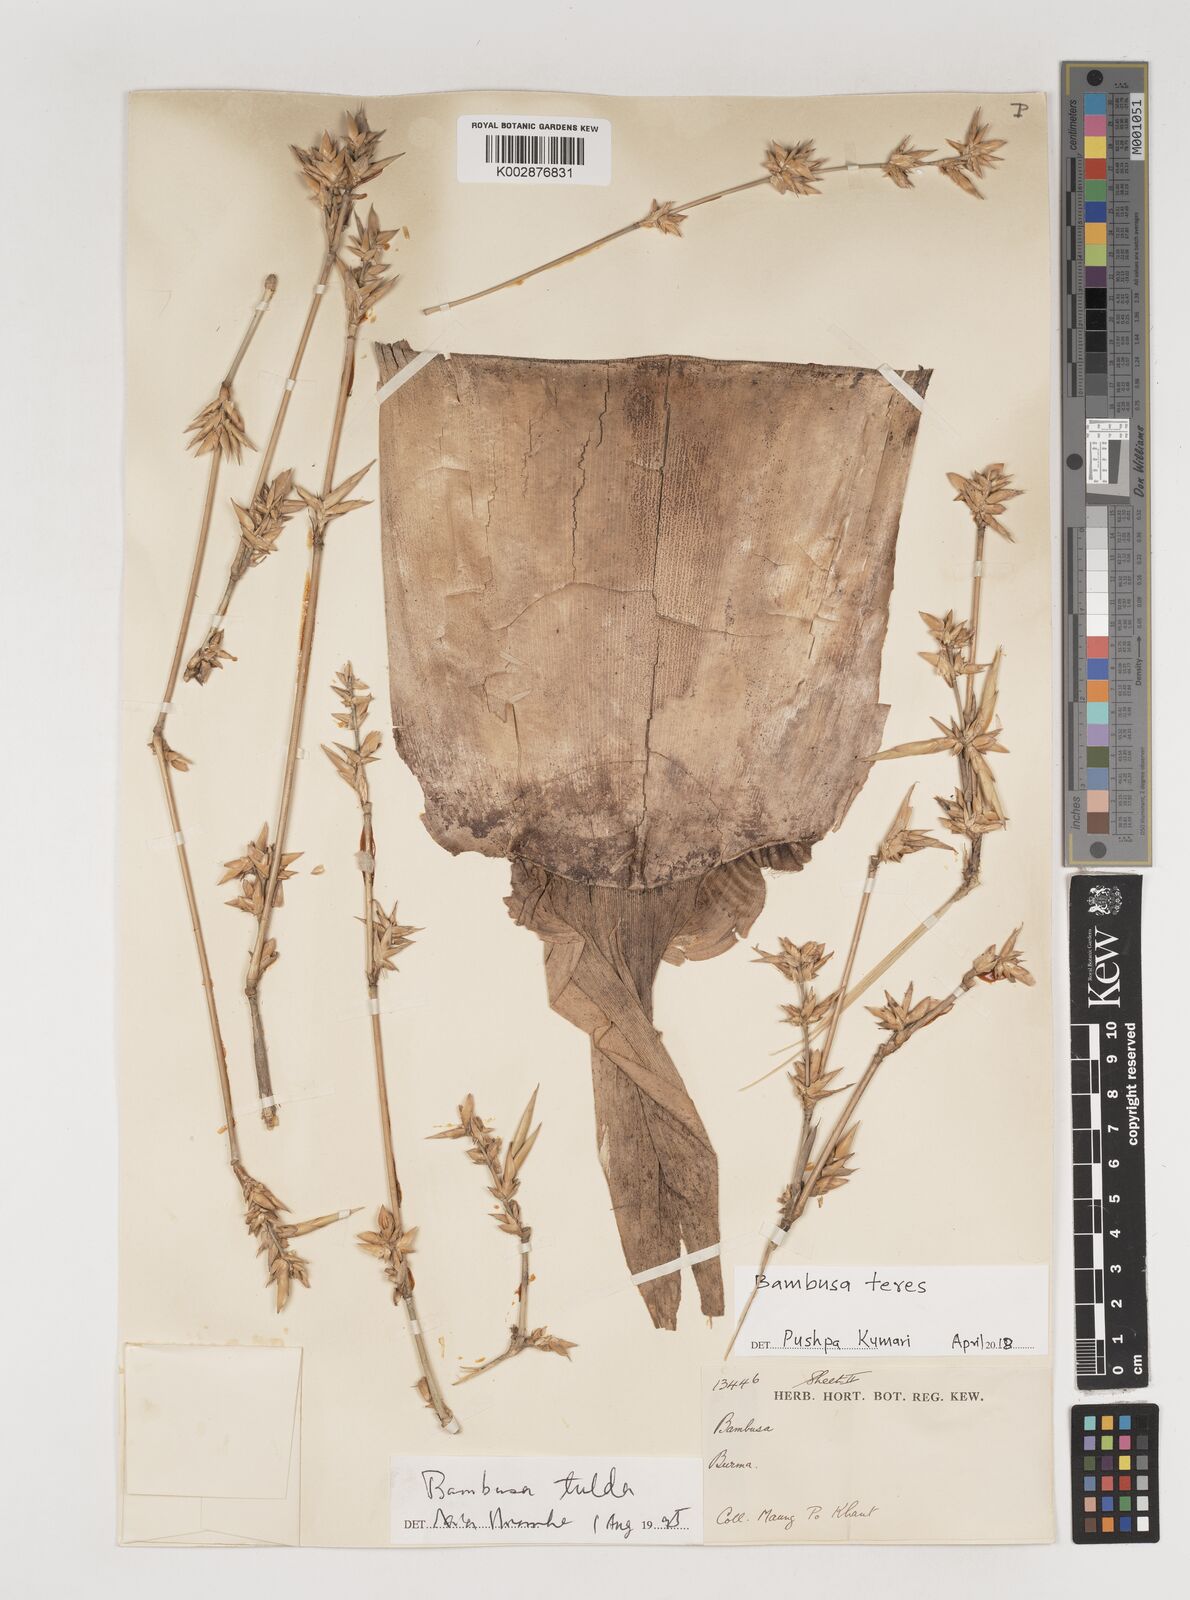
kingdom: Plantae
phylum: Tracheophyta
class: Liliopsida
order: Poales
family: Poaceae
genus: Bambusa
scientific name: Bambusa teres
